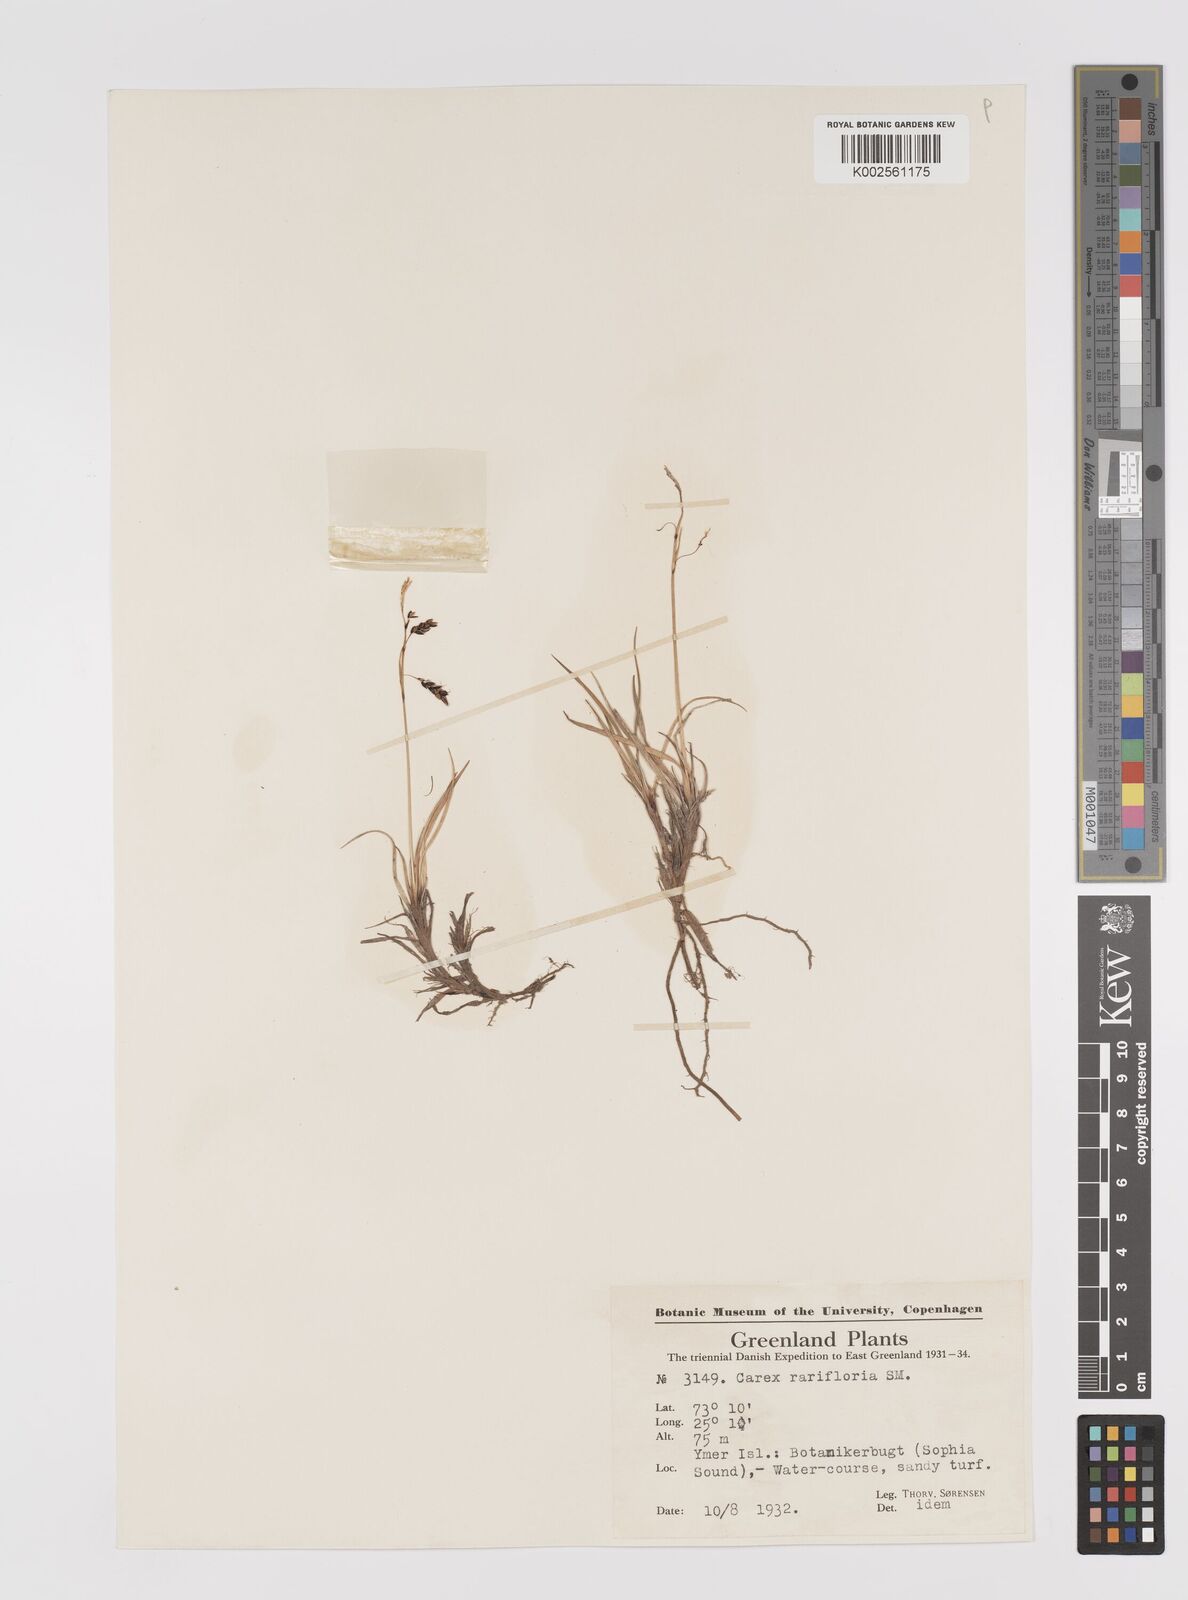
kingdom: Plantae
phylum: Tracheophyta
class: Liliopsida
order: Poales
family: Cyperaceae
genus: Carex
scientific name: Carex rariflora
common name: Loose-flowered alpine sedge
